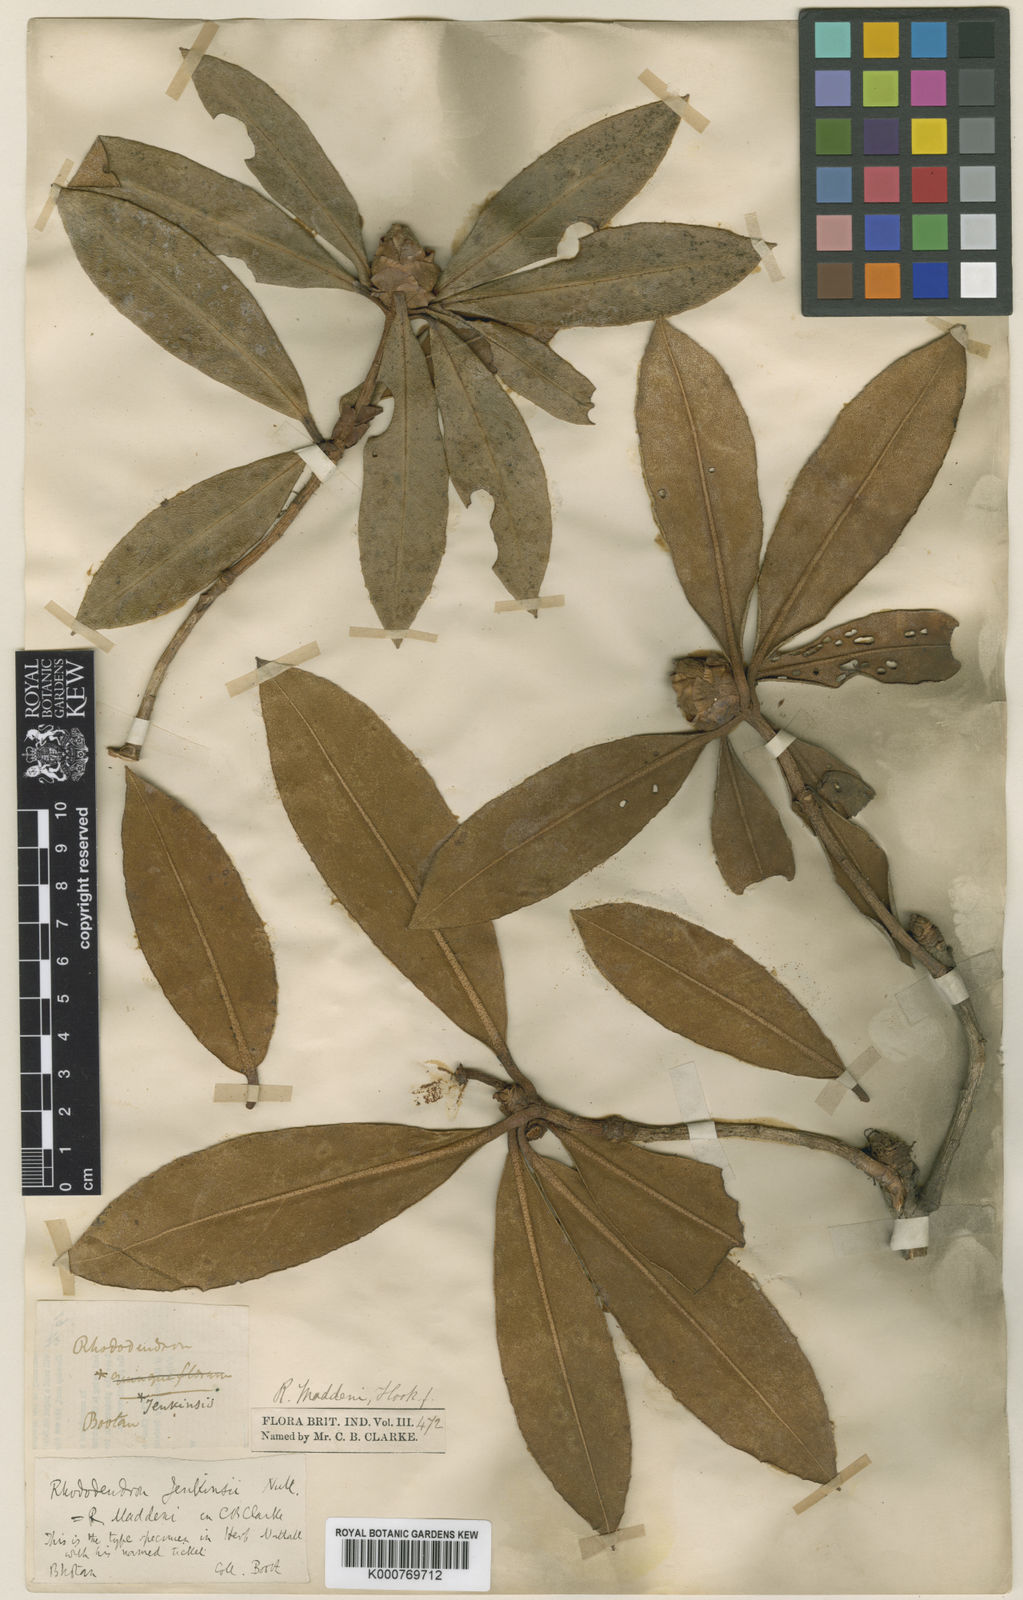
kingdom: Plantae
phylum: Tracheophyta
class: Magnoliopsida
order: Ericales
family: Ericaceae
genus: Rhododendron
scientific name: Rhododendron maddenii
